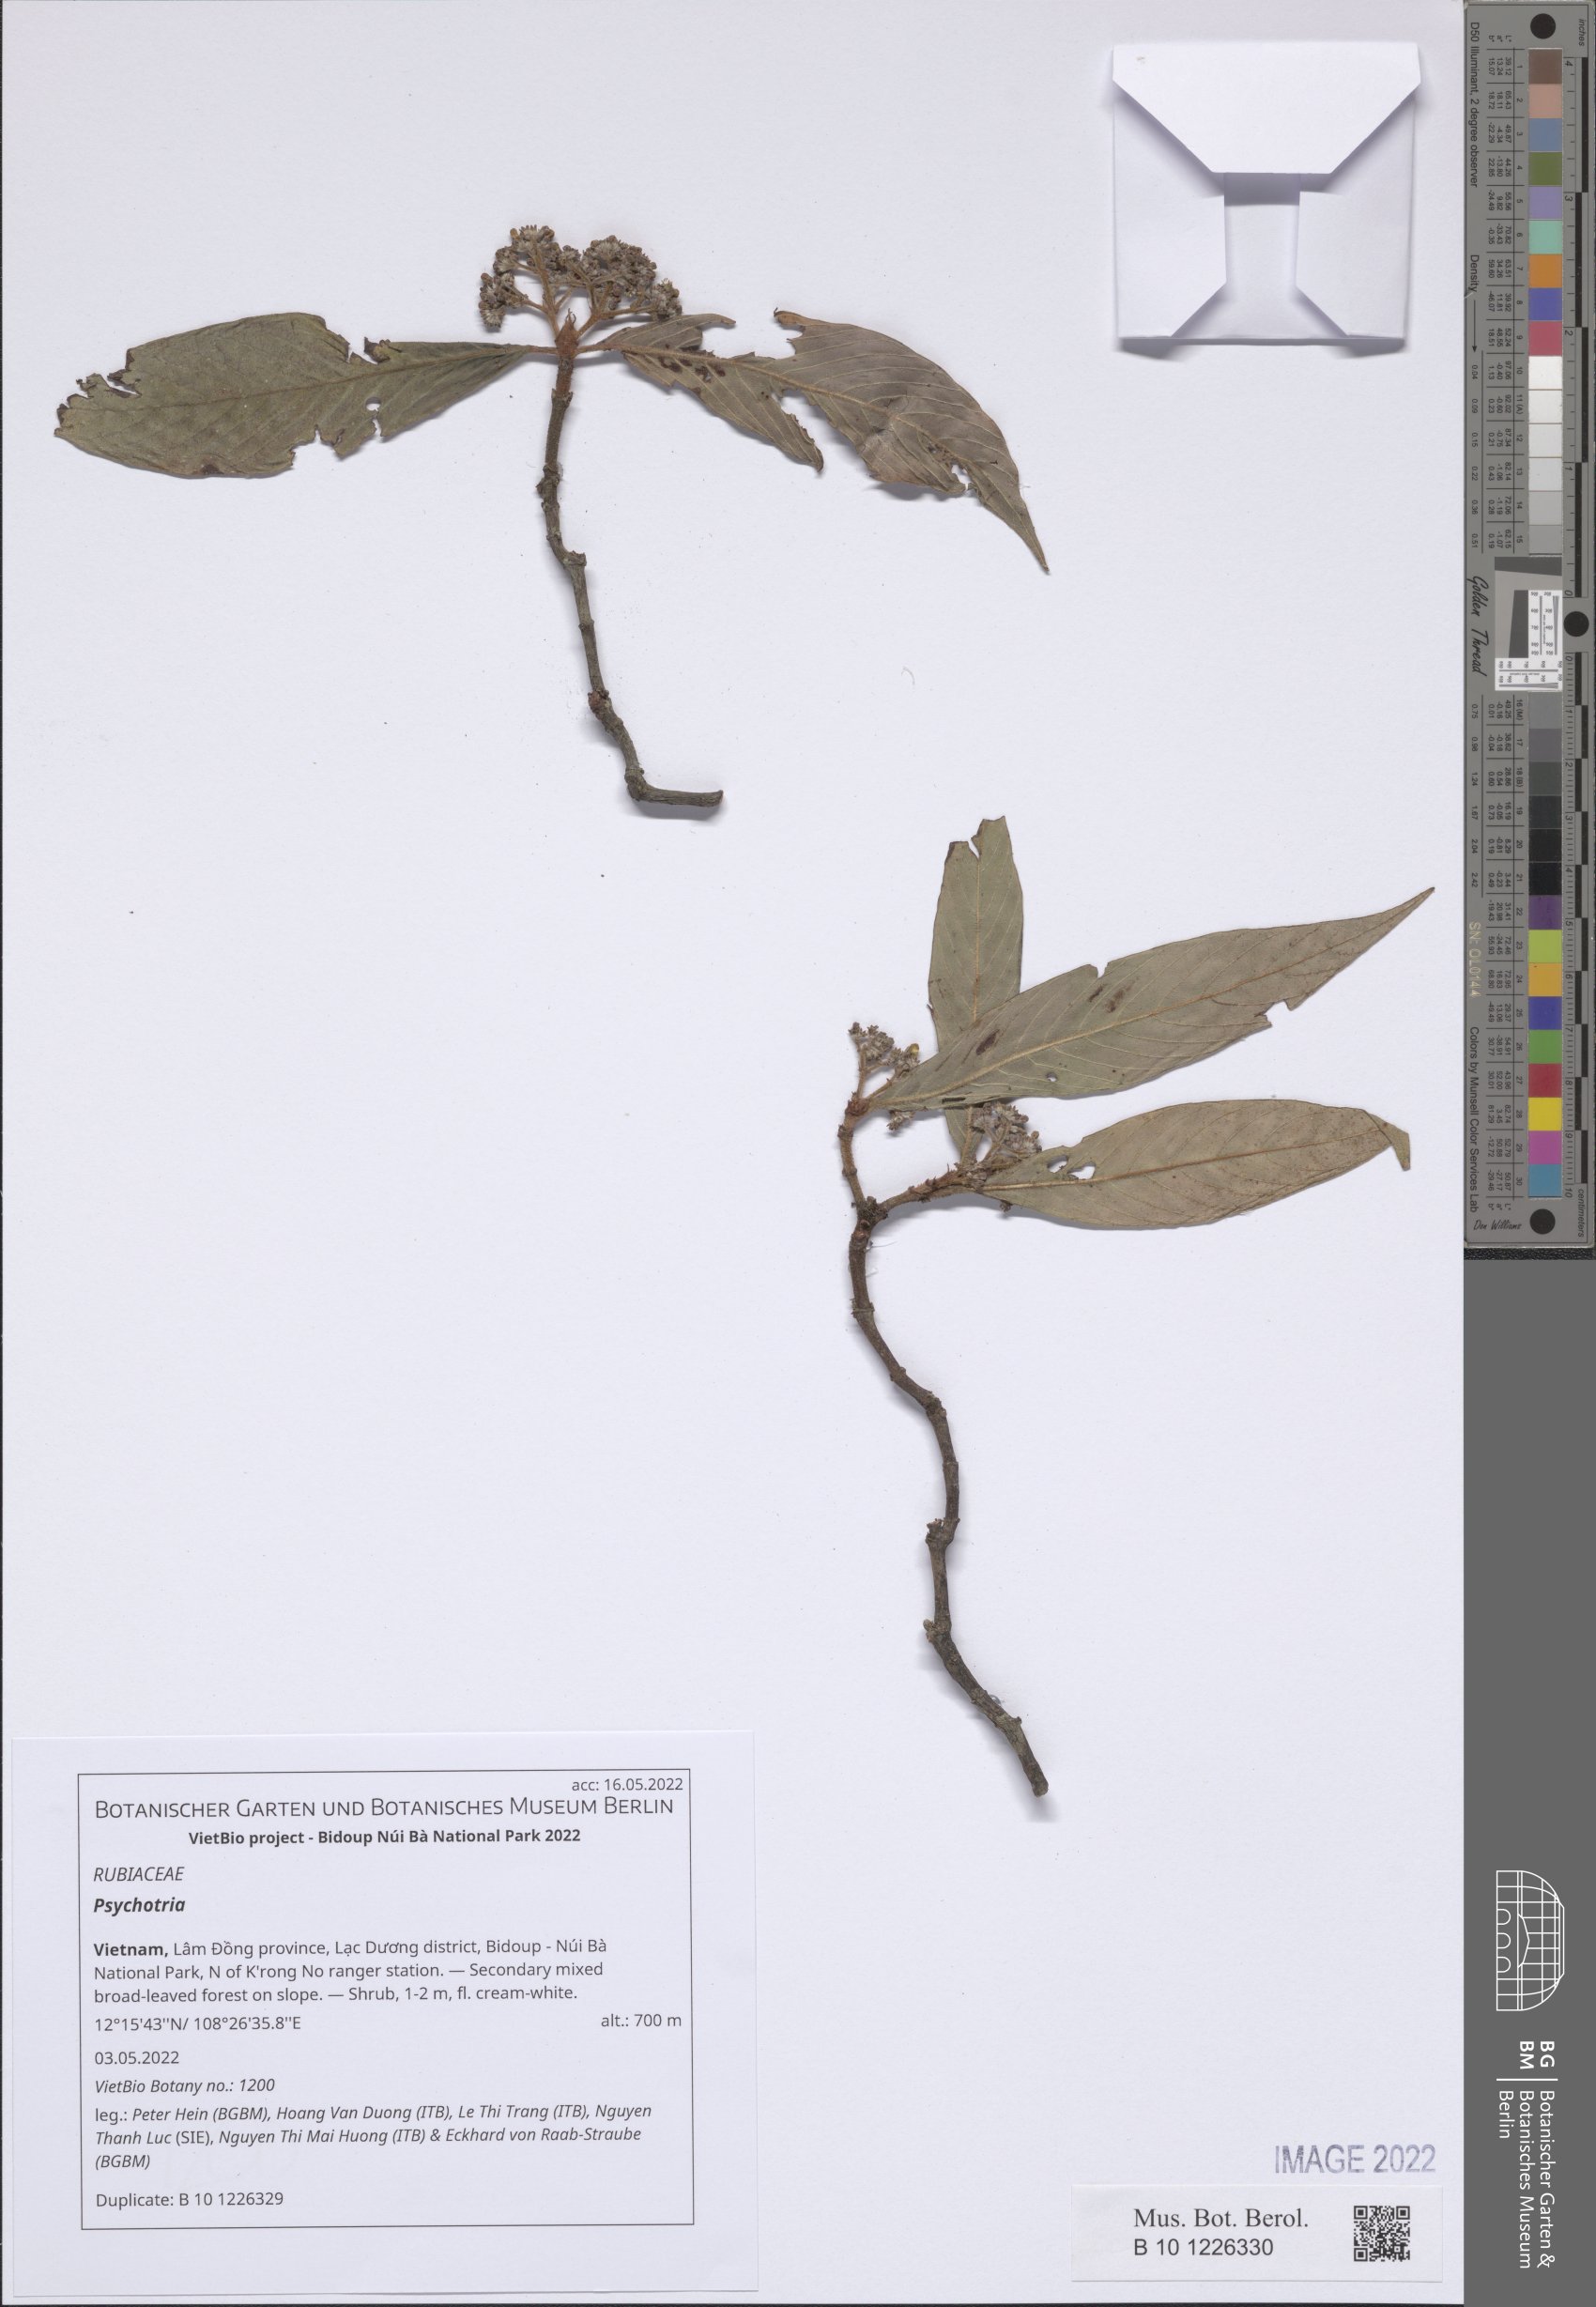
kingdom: Plantae
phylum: Tracheophyta
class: Magnoliopsida
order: Gentianales
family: Rubiaceae
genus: Psychotria
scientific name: Psychotria
